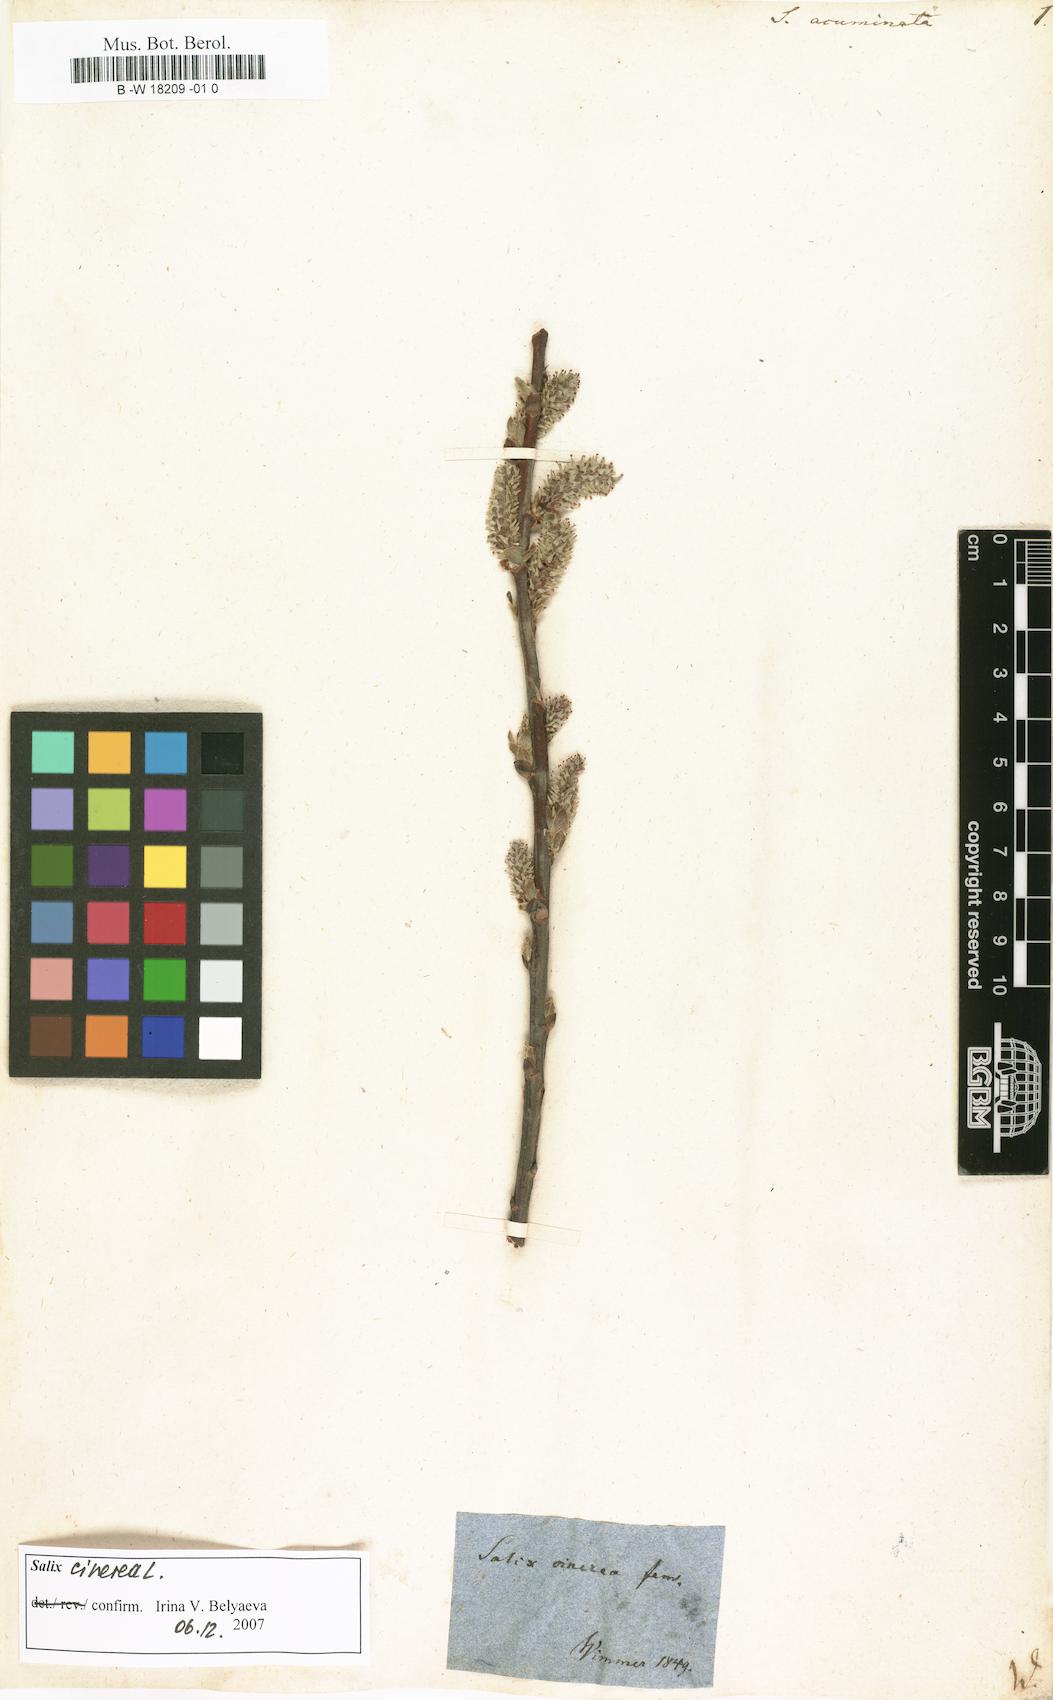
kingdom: Plantae
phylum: Tracheophyta
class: Magnoliopsida
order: Malpighiales
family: Salicaceae
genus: Salix
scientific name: Salix
